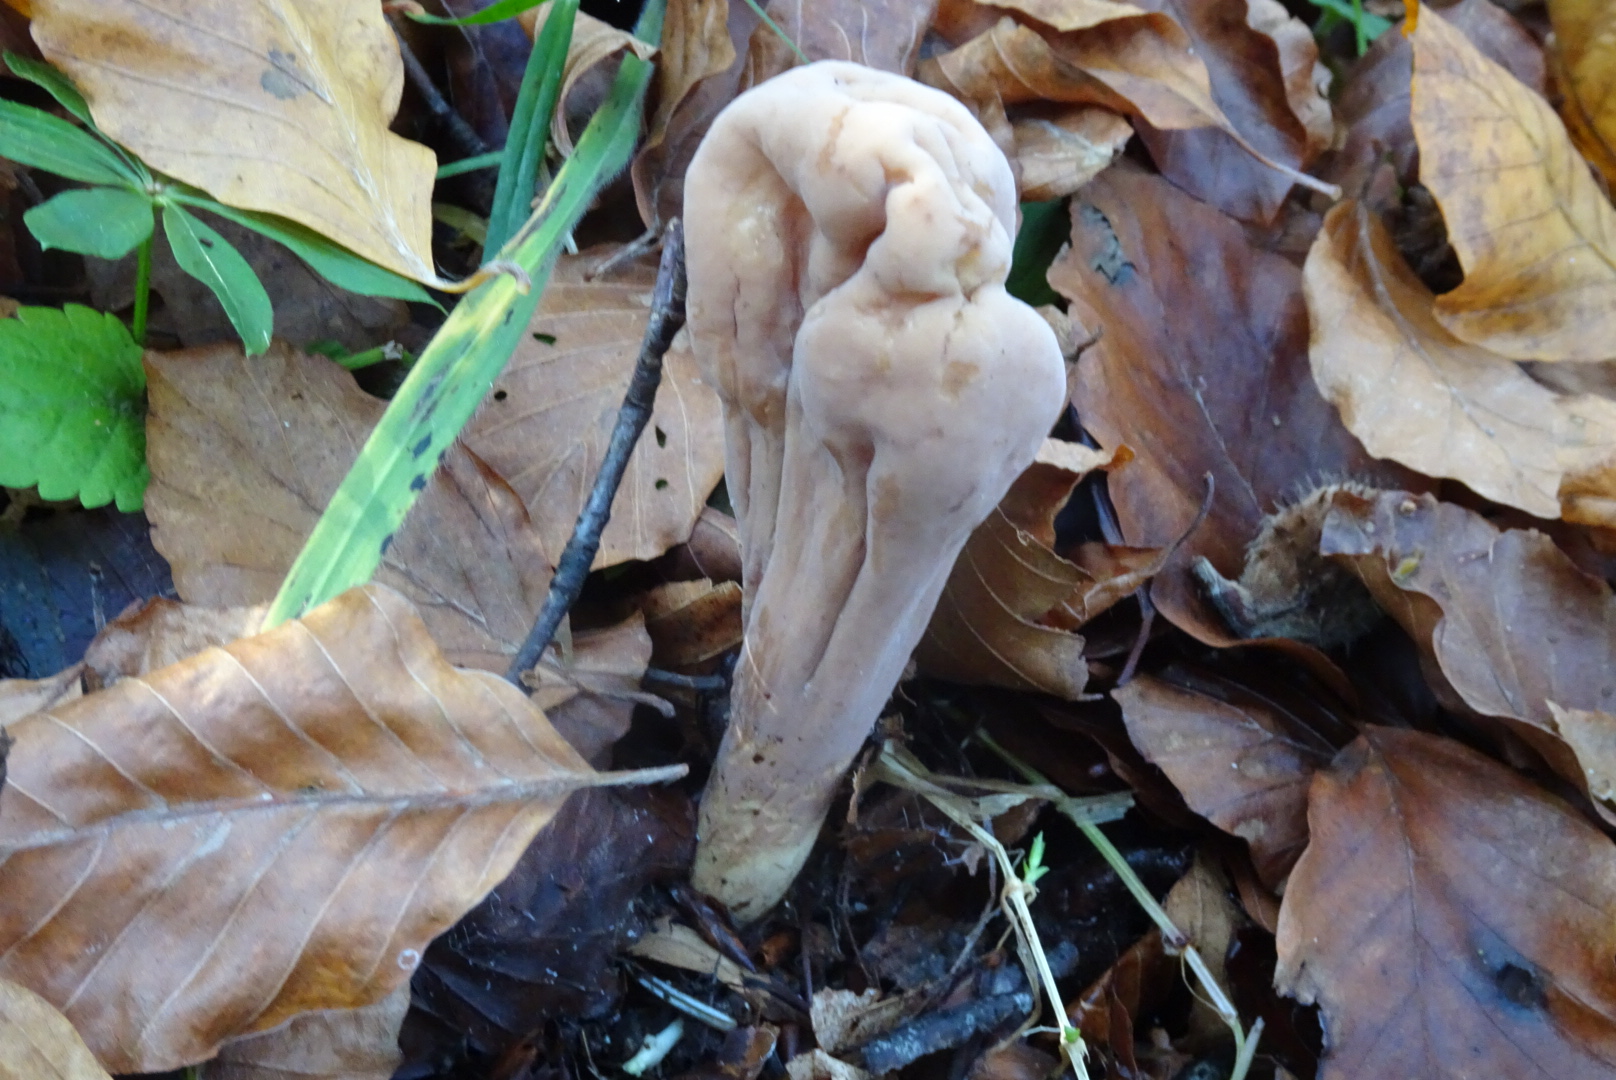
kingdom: Fungi
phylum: Basidiomycota
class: Agaricomycetes
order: Gomphales
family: Clavariadelphaceae
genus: Clavariadelphus
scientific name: Clavariadelphus pistillaris
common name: herkules-kæmpekølle
